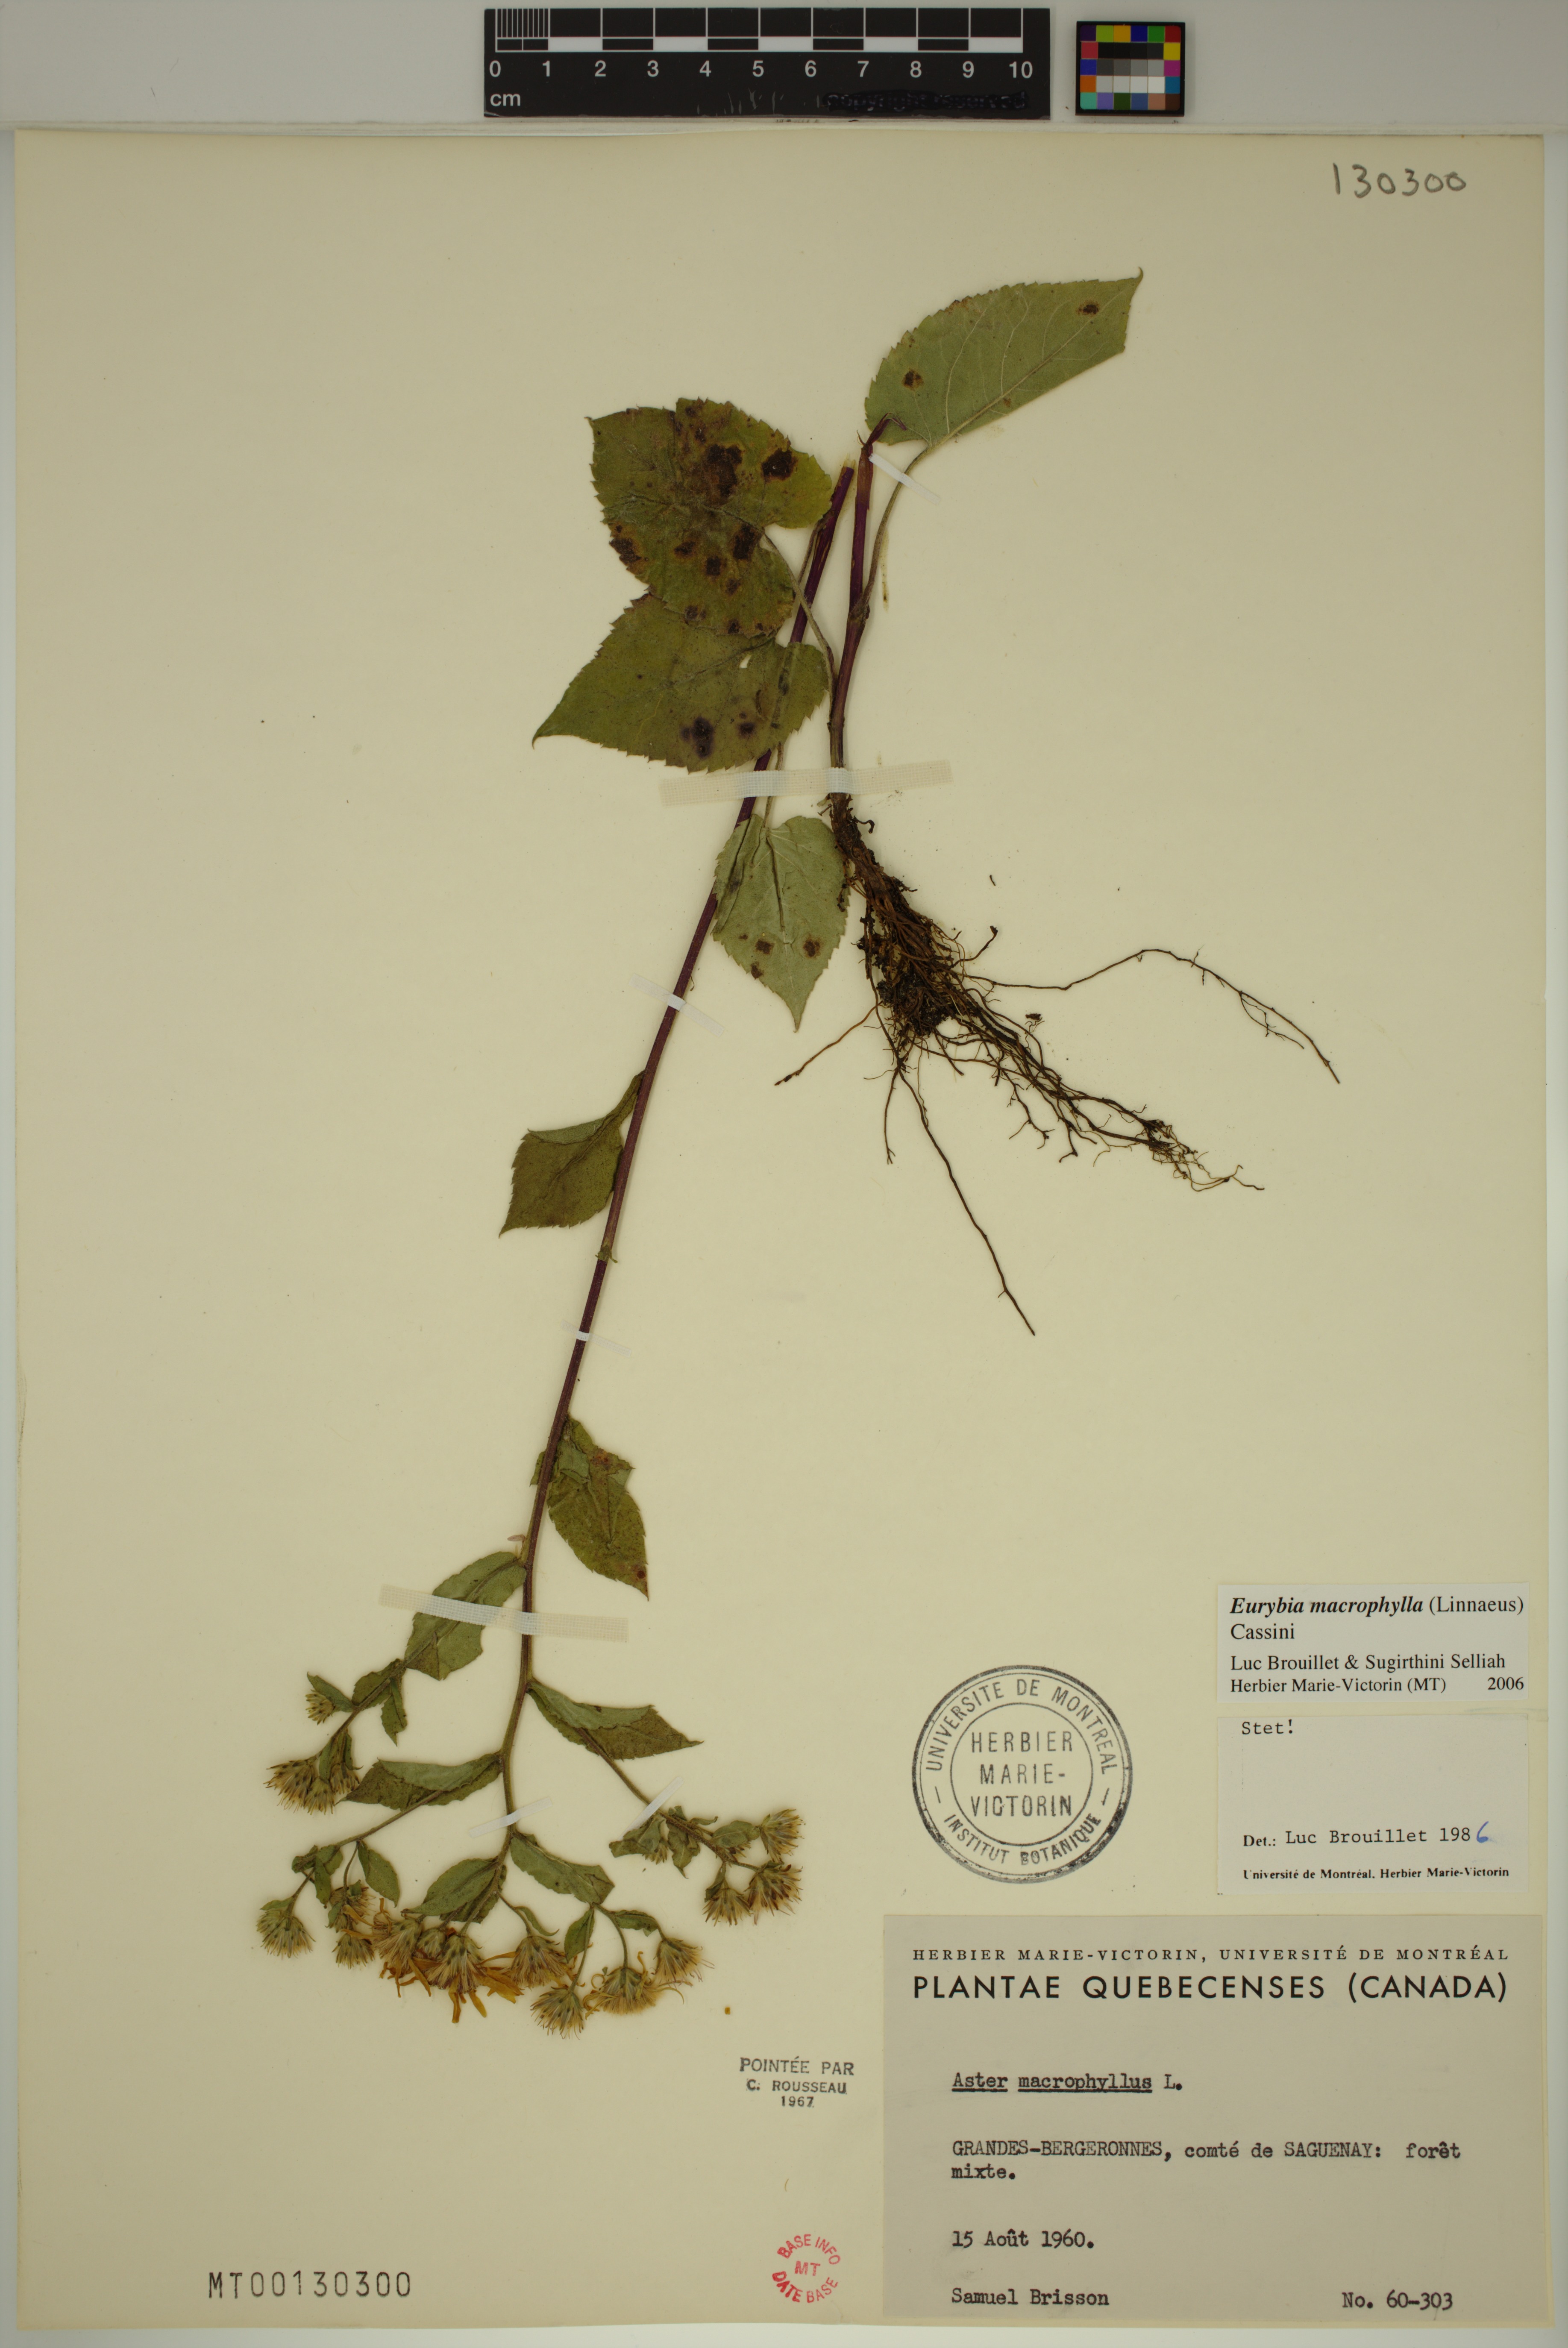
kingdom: Plantae
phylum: Tracheophyta
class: Magnoliopsida
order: Asterales
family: Asteraceae
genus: Eurybia
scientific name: Eurybia macrophylla
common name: Big-leaved aster
